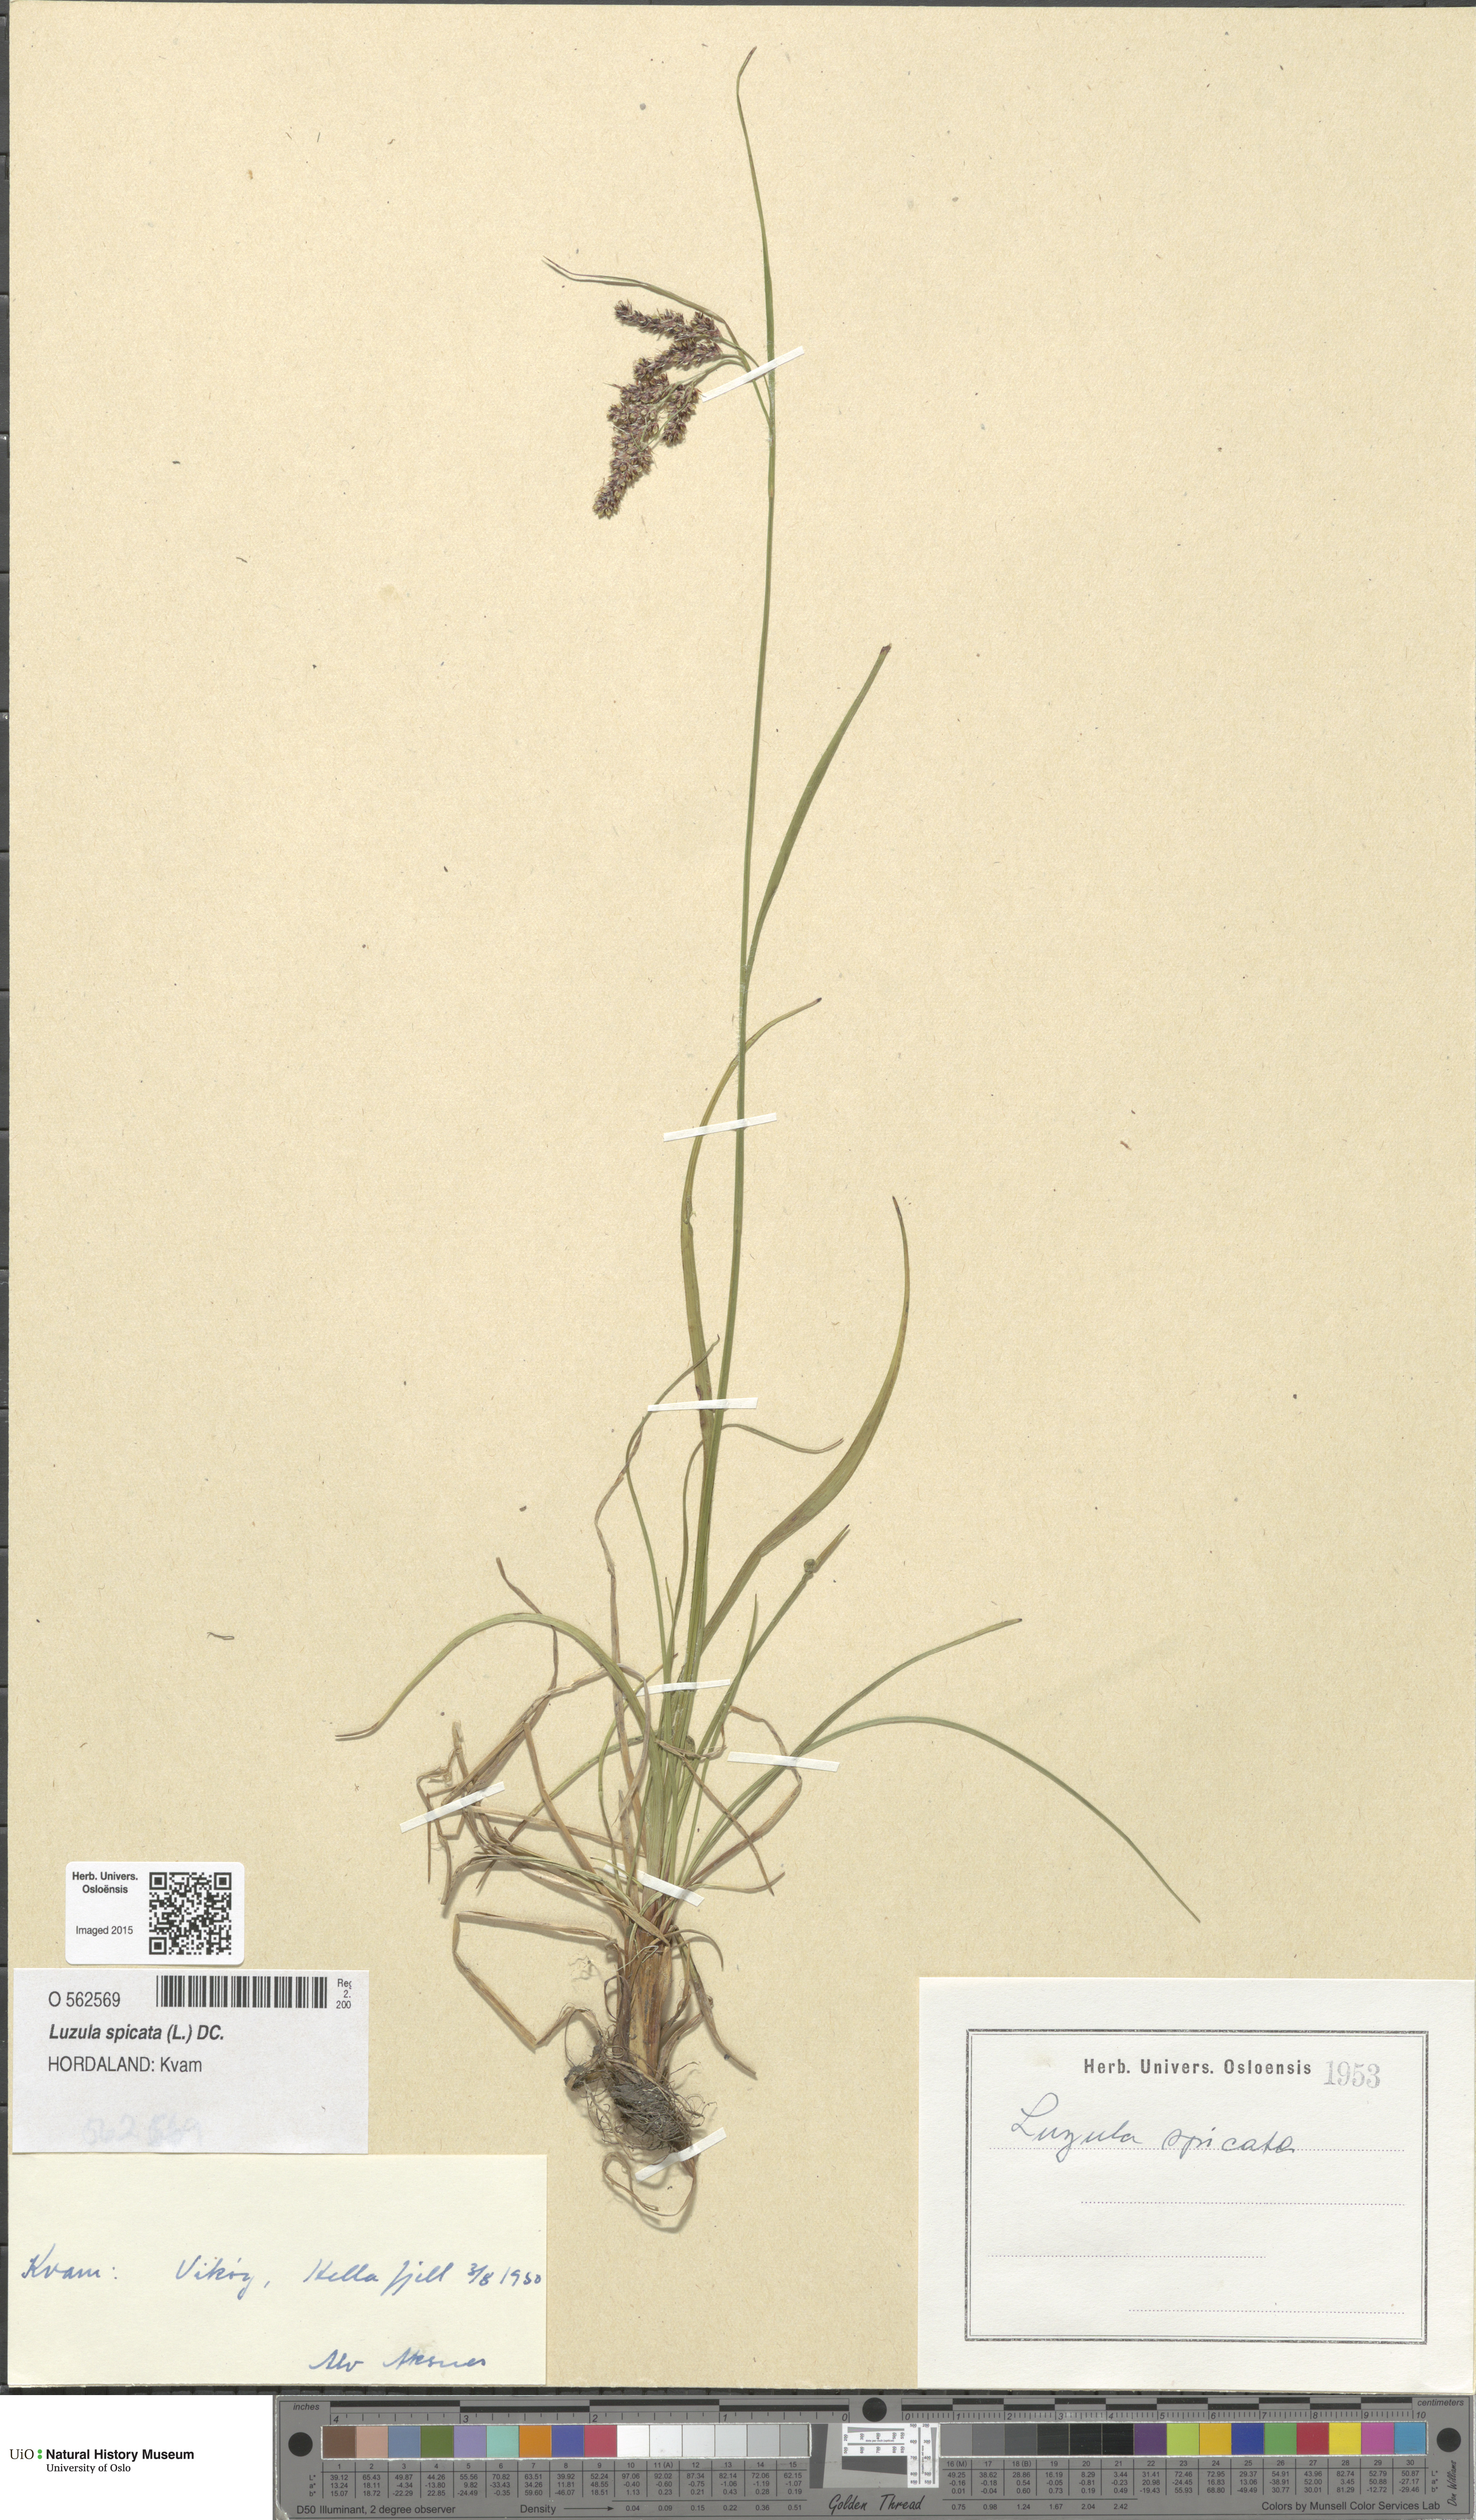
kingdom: Plantae
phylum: Tracheophyta
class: Liliopsida
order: Poales
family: Juncaceae
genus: Luzula
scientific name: Luzula spicata
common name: Spiked wood-rush
